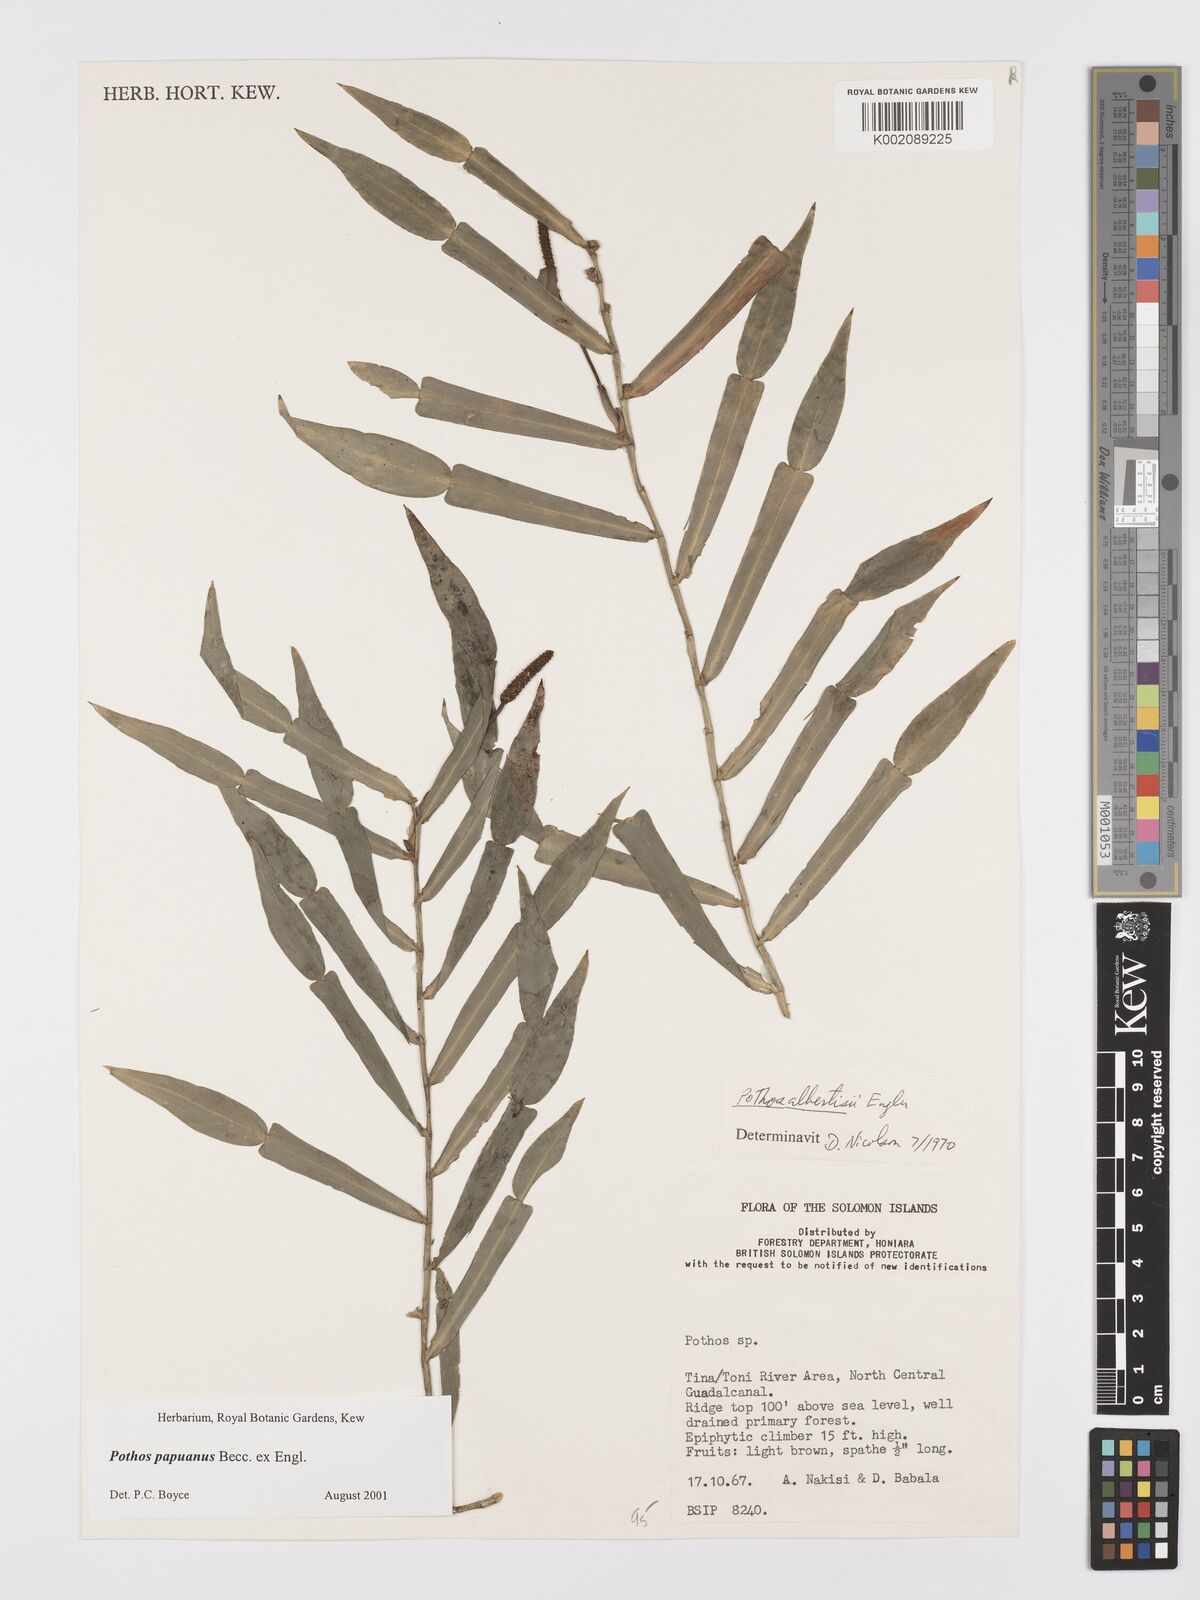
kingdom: Plantae
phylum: Tracheophyta
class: Liliopsida
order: Alismatales
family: Araceae
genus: Pothos
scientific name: Pothos papuanus
